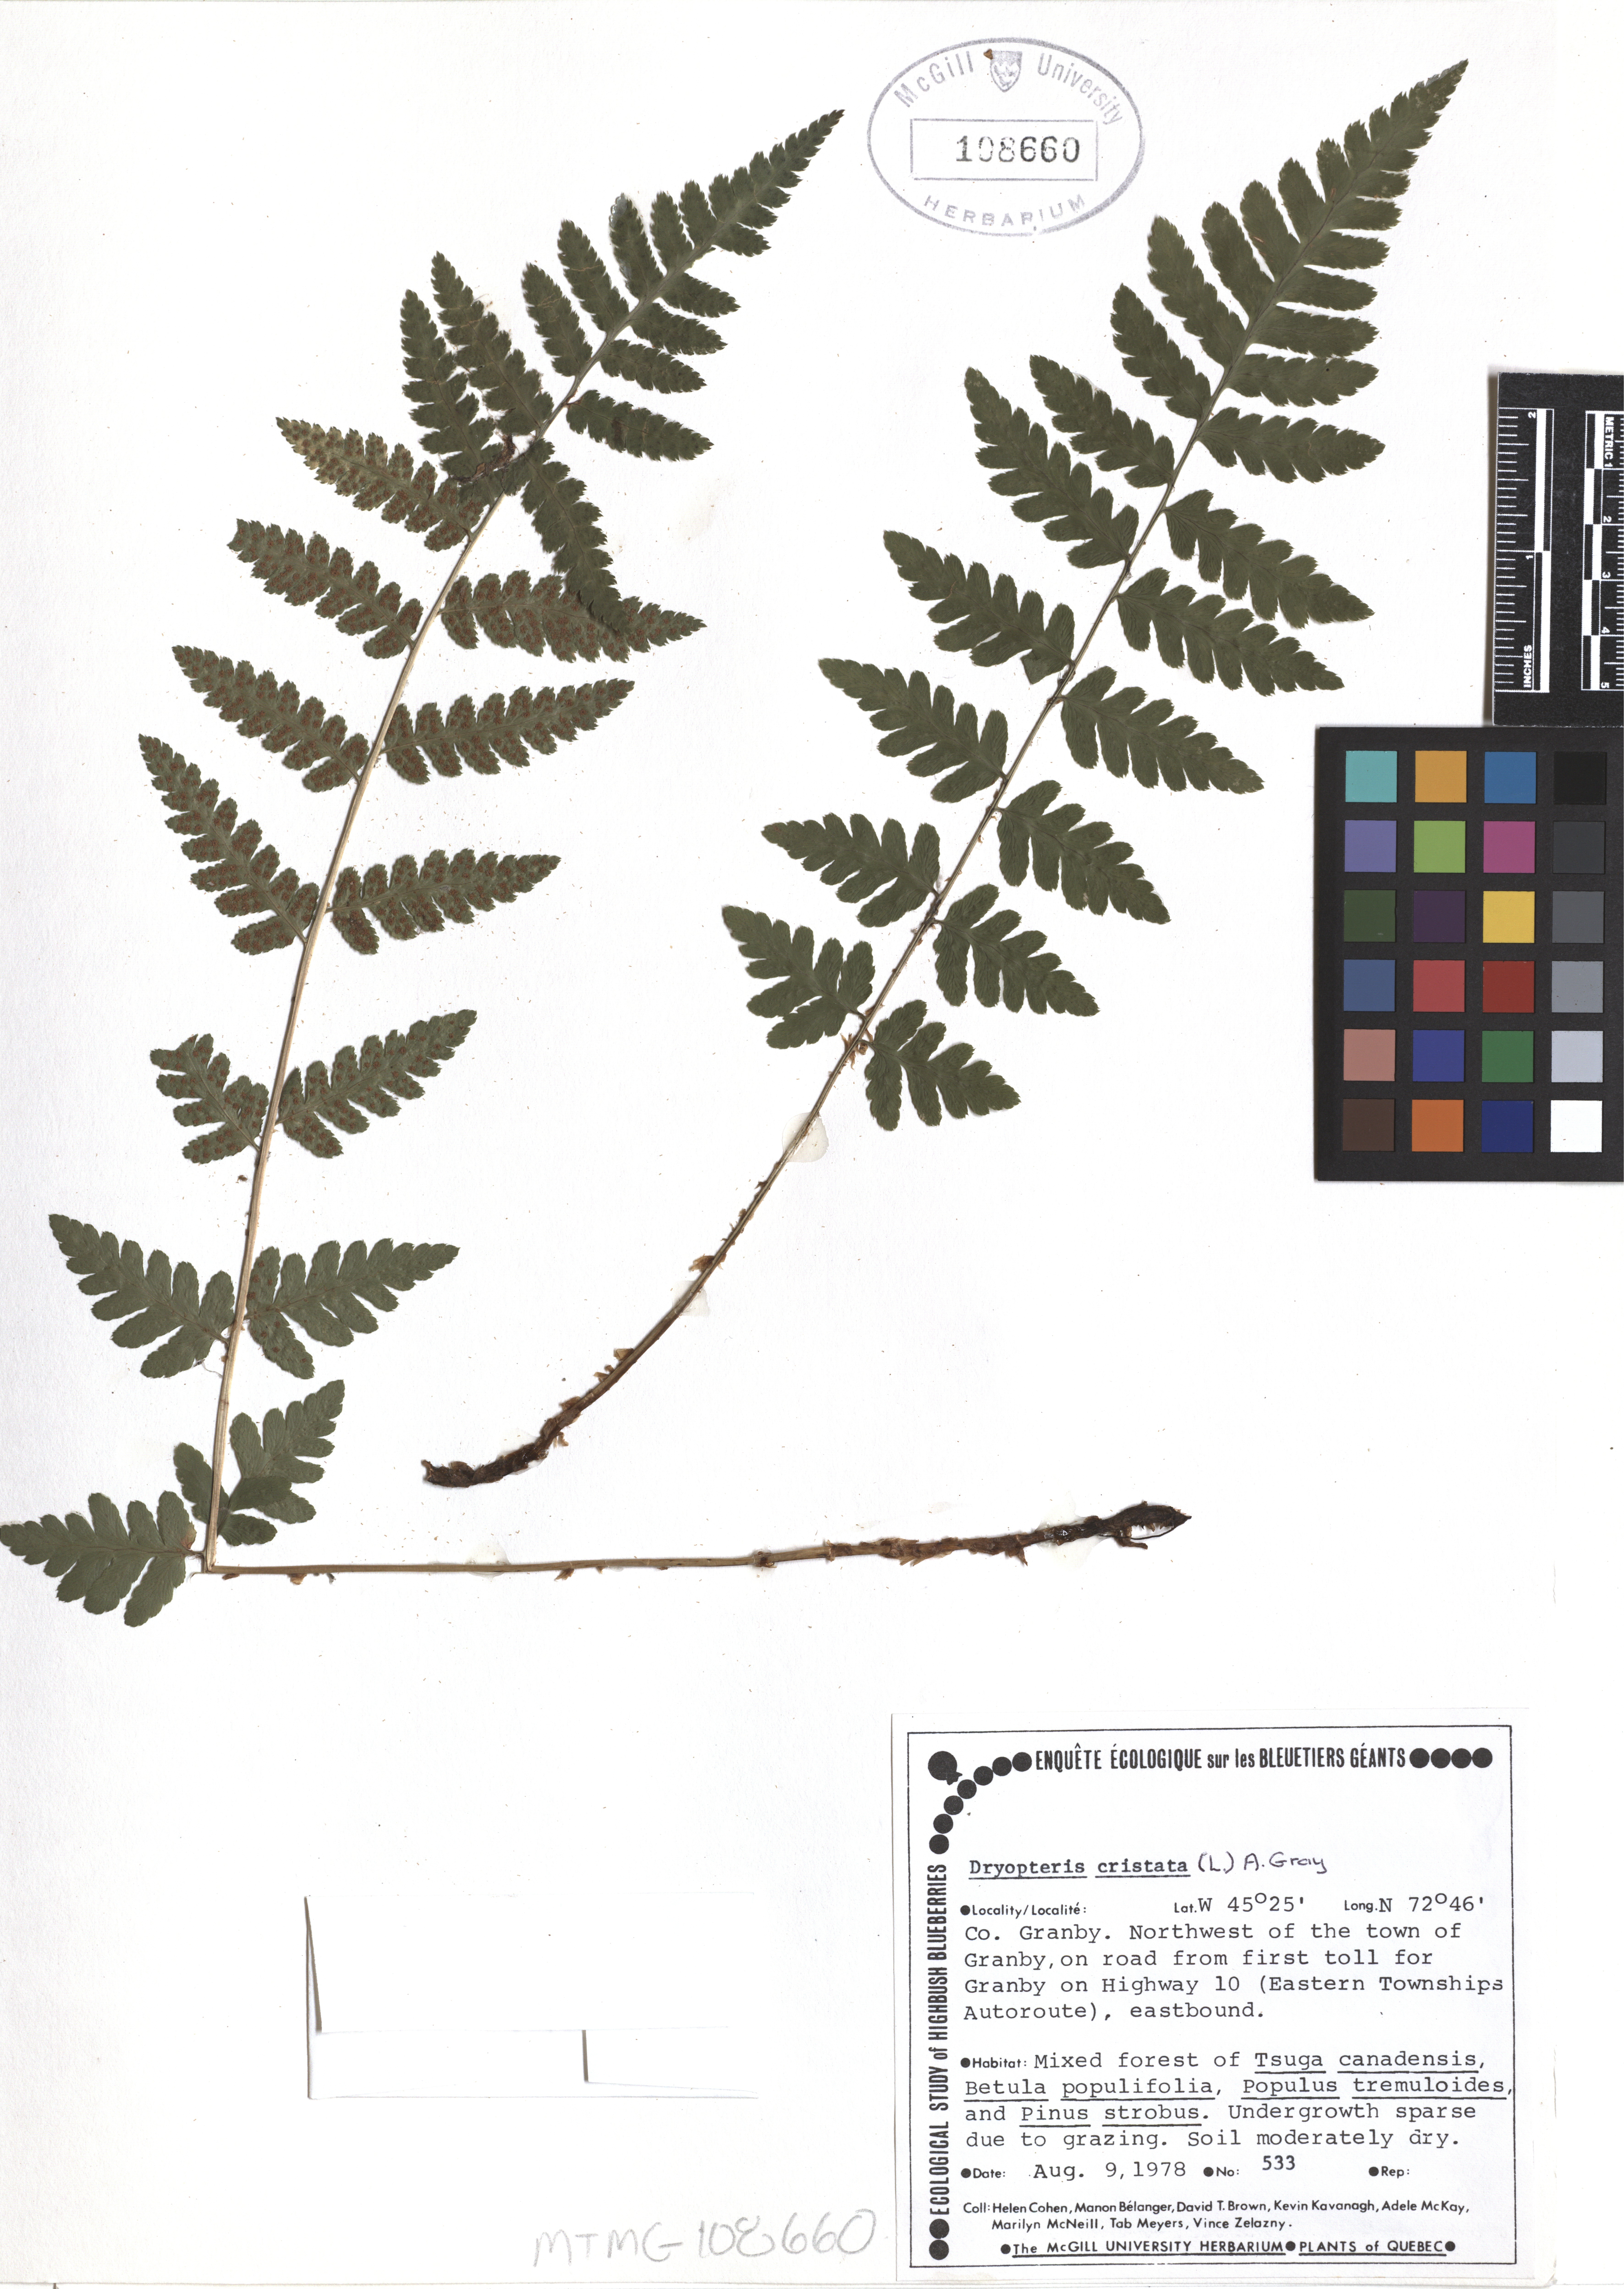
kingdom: Plantae
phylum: Tracheophyta
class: Polypodiopsida
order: Polypodiales
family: Dryopteridaceae
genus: Dryopteris
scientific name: Dryopteris cristata
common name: Crested wood fern
